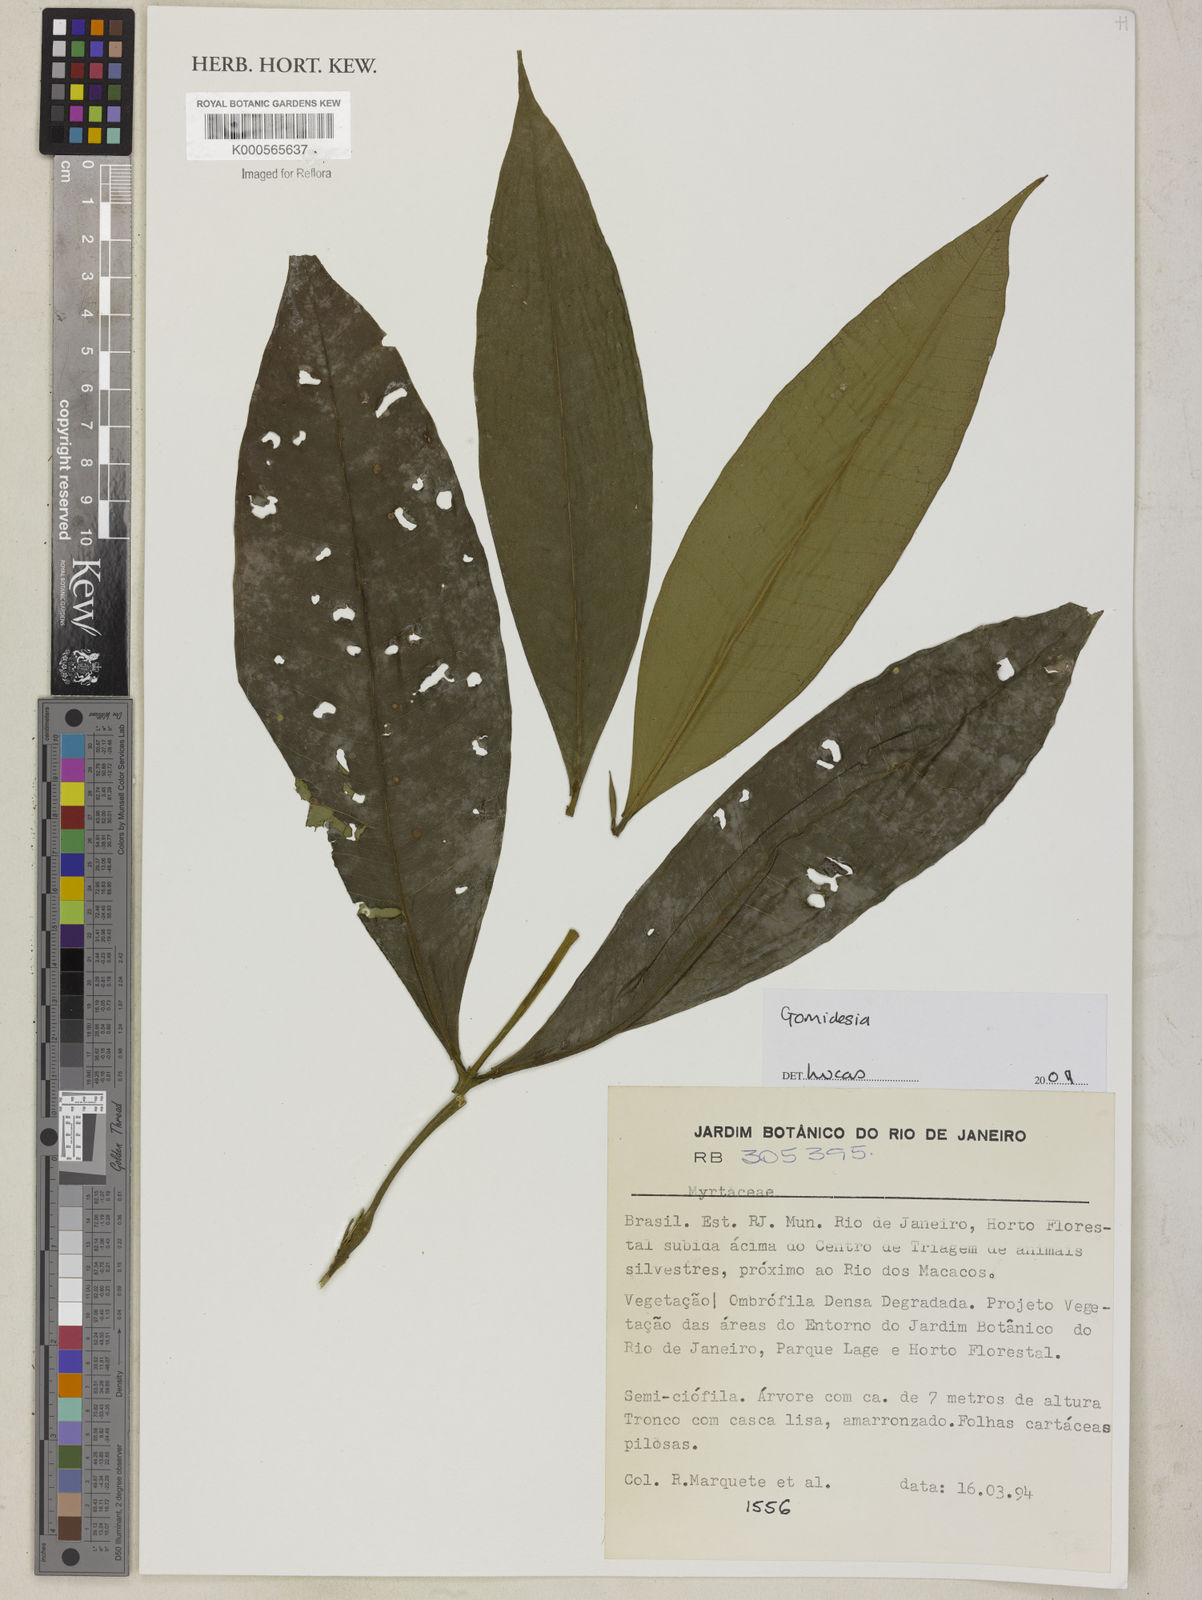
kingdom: Plantae
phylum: Tracheophyta
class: Magnoliopsida
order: Myrtales
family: Myrtaceae
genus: Myrcia
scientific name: Myrcia
